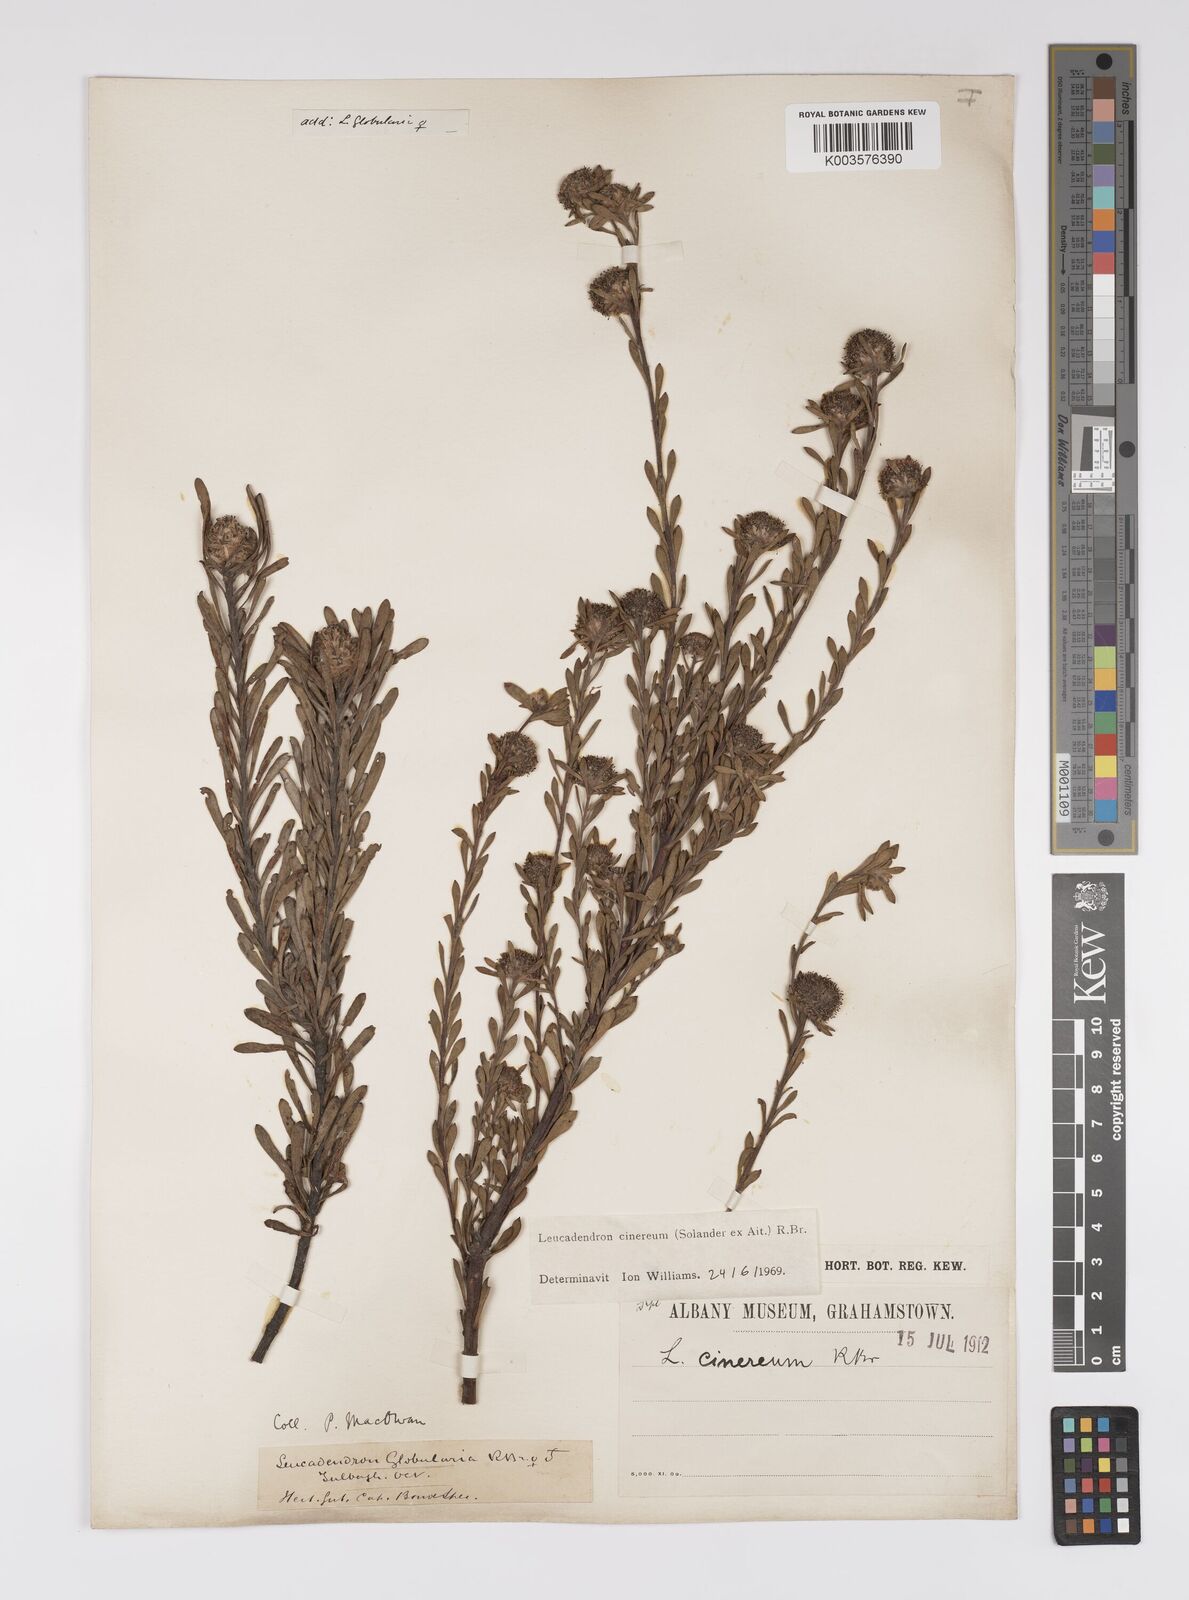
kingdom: Plantae
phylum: Tracheophyta
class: Magnoliopsida
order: Proteales
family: Proteaceae
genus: Leucadendron
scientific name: Leucadendron cinereum
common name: Scraggly conebush
